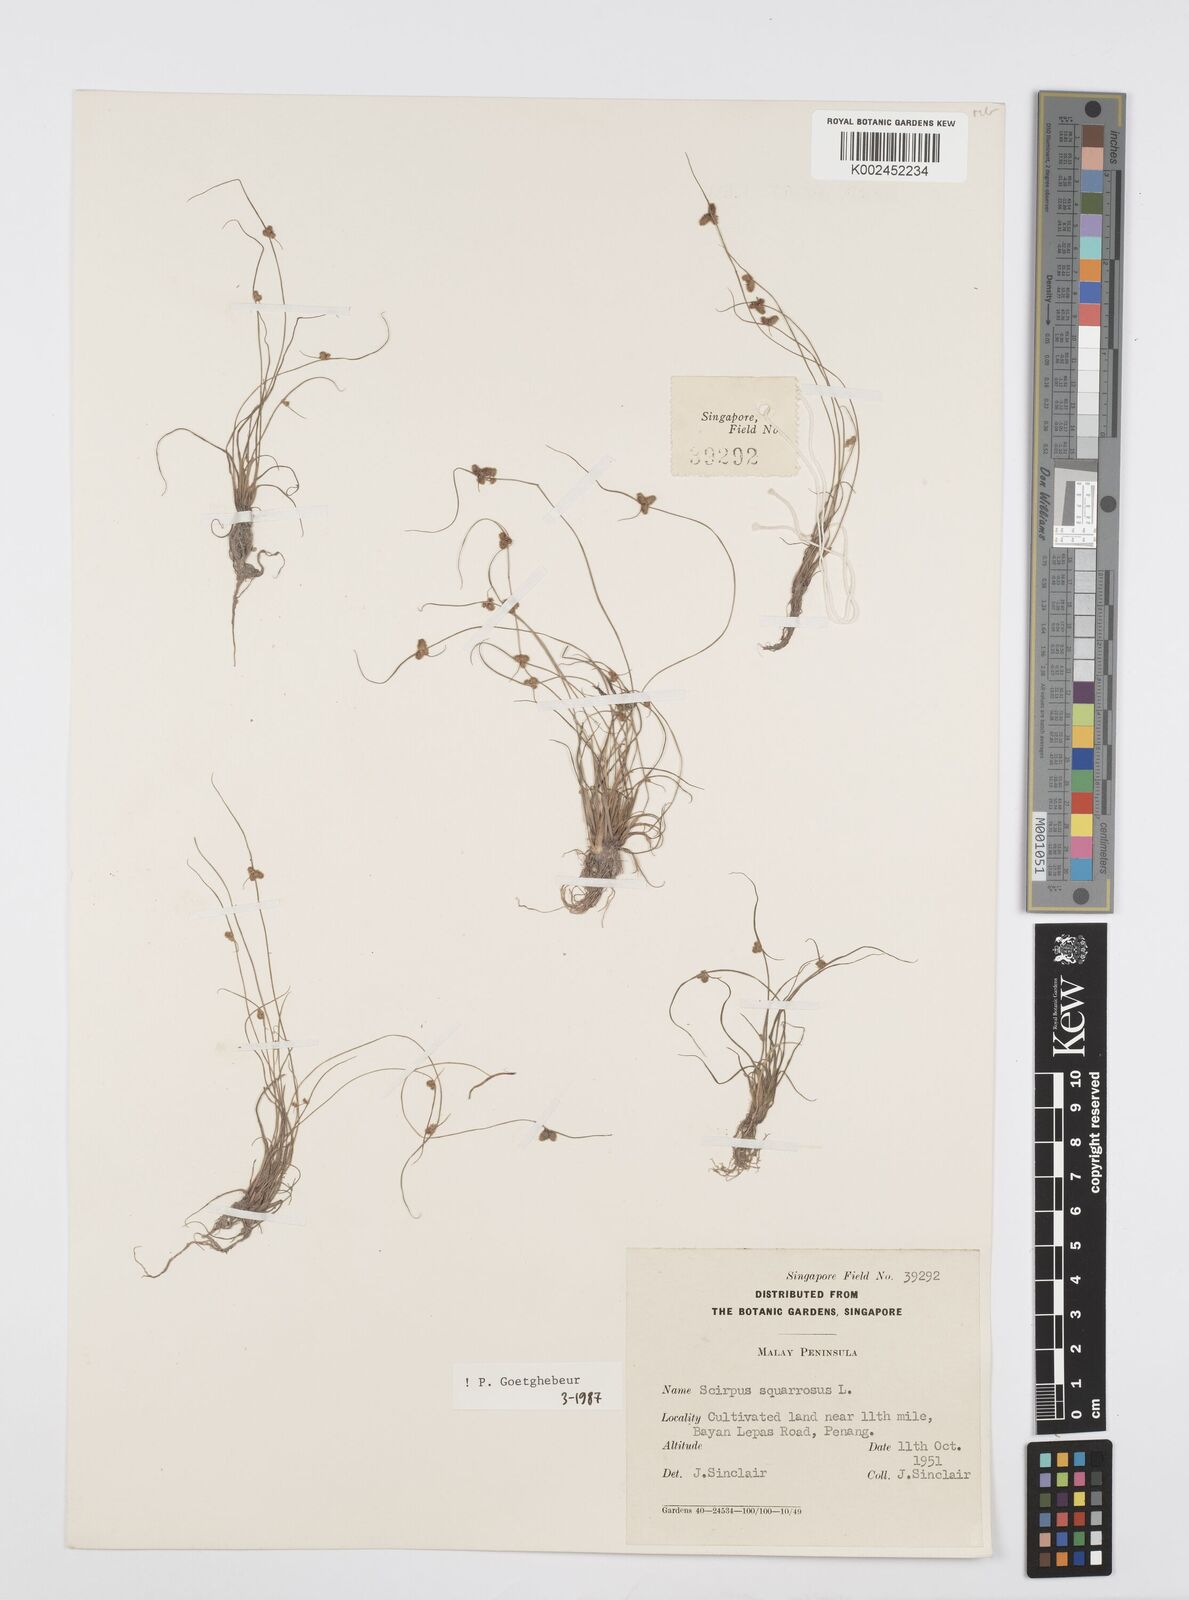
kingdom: Plantae
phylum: Tracheophyta
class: Liliopsida
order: Poales
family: Cyperaceae
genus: Cyperus
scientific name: Cyperus squarrosus
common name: Awned cyperus
